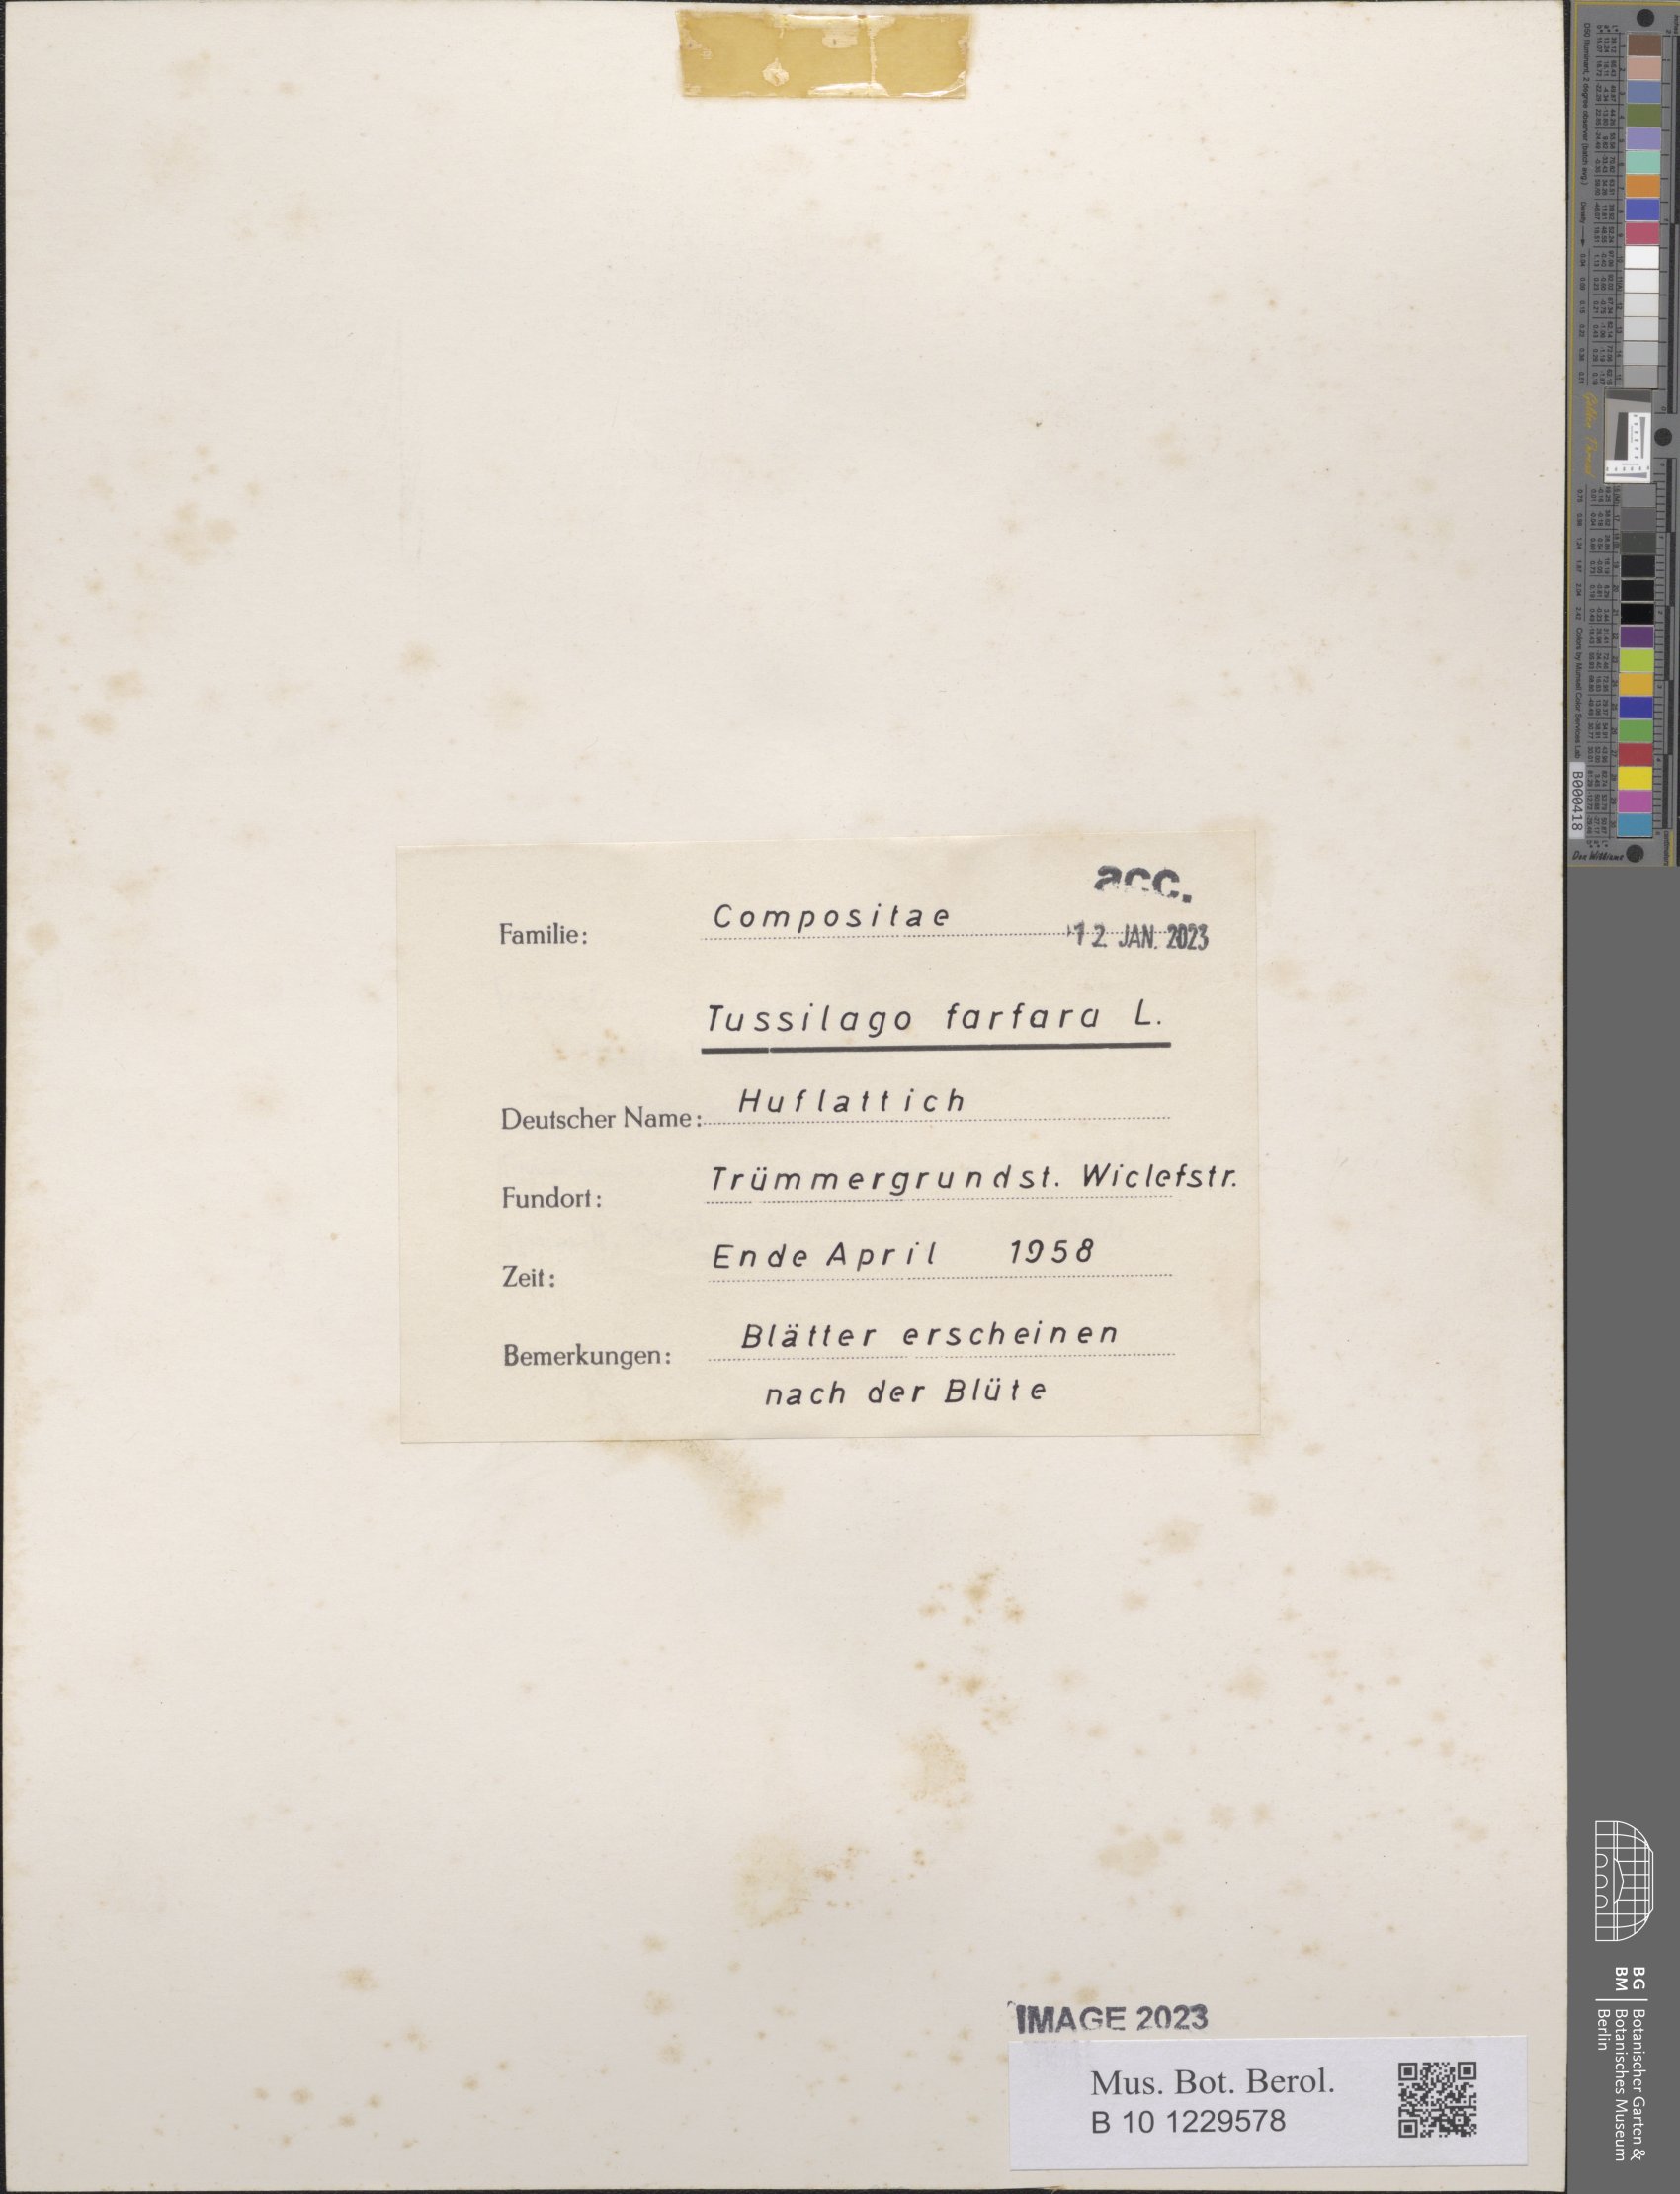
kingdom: Plantae
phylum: Tracheophyta
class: Magnoliopsida
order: Asterales
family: Asteraceae
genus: Tussilago
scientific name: Tussilago farfara
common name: Coltsfoot
